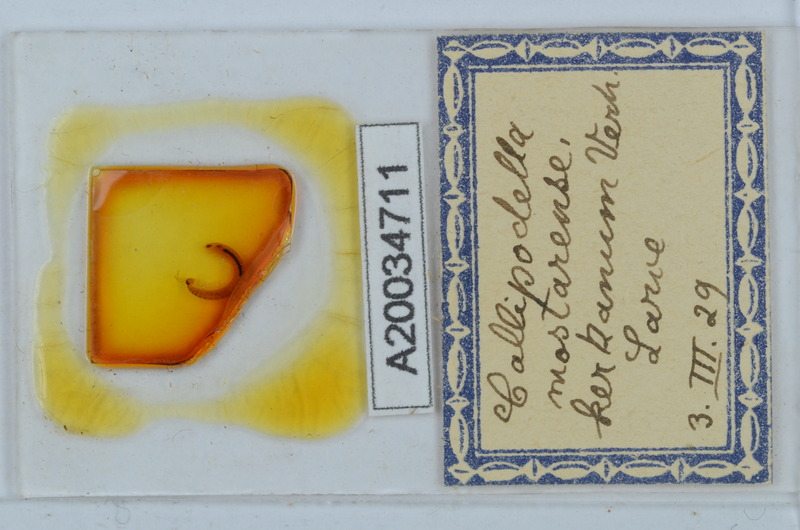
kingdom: Animalia
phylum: Arthropoda
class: Diplopoda
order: Callipodida
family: Schizopetalidae
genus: Callipodella
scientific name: Callipodella mostarensis
